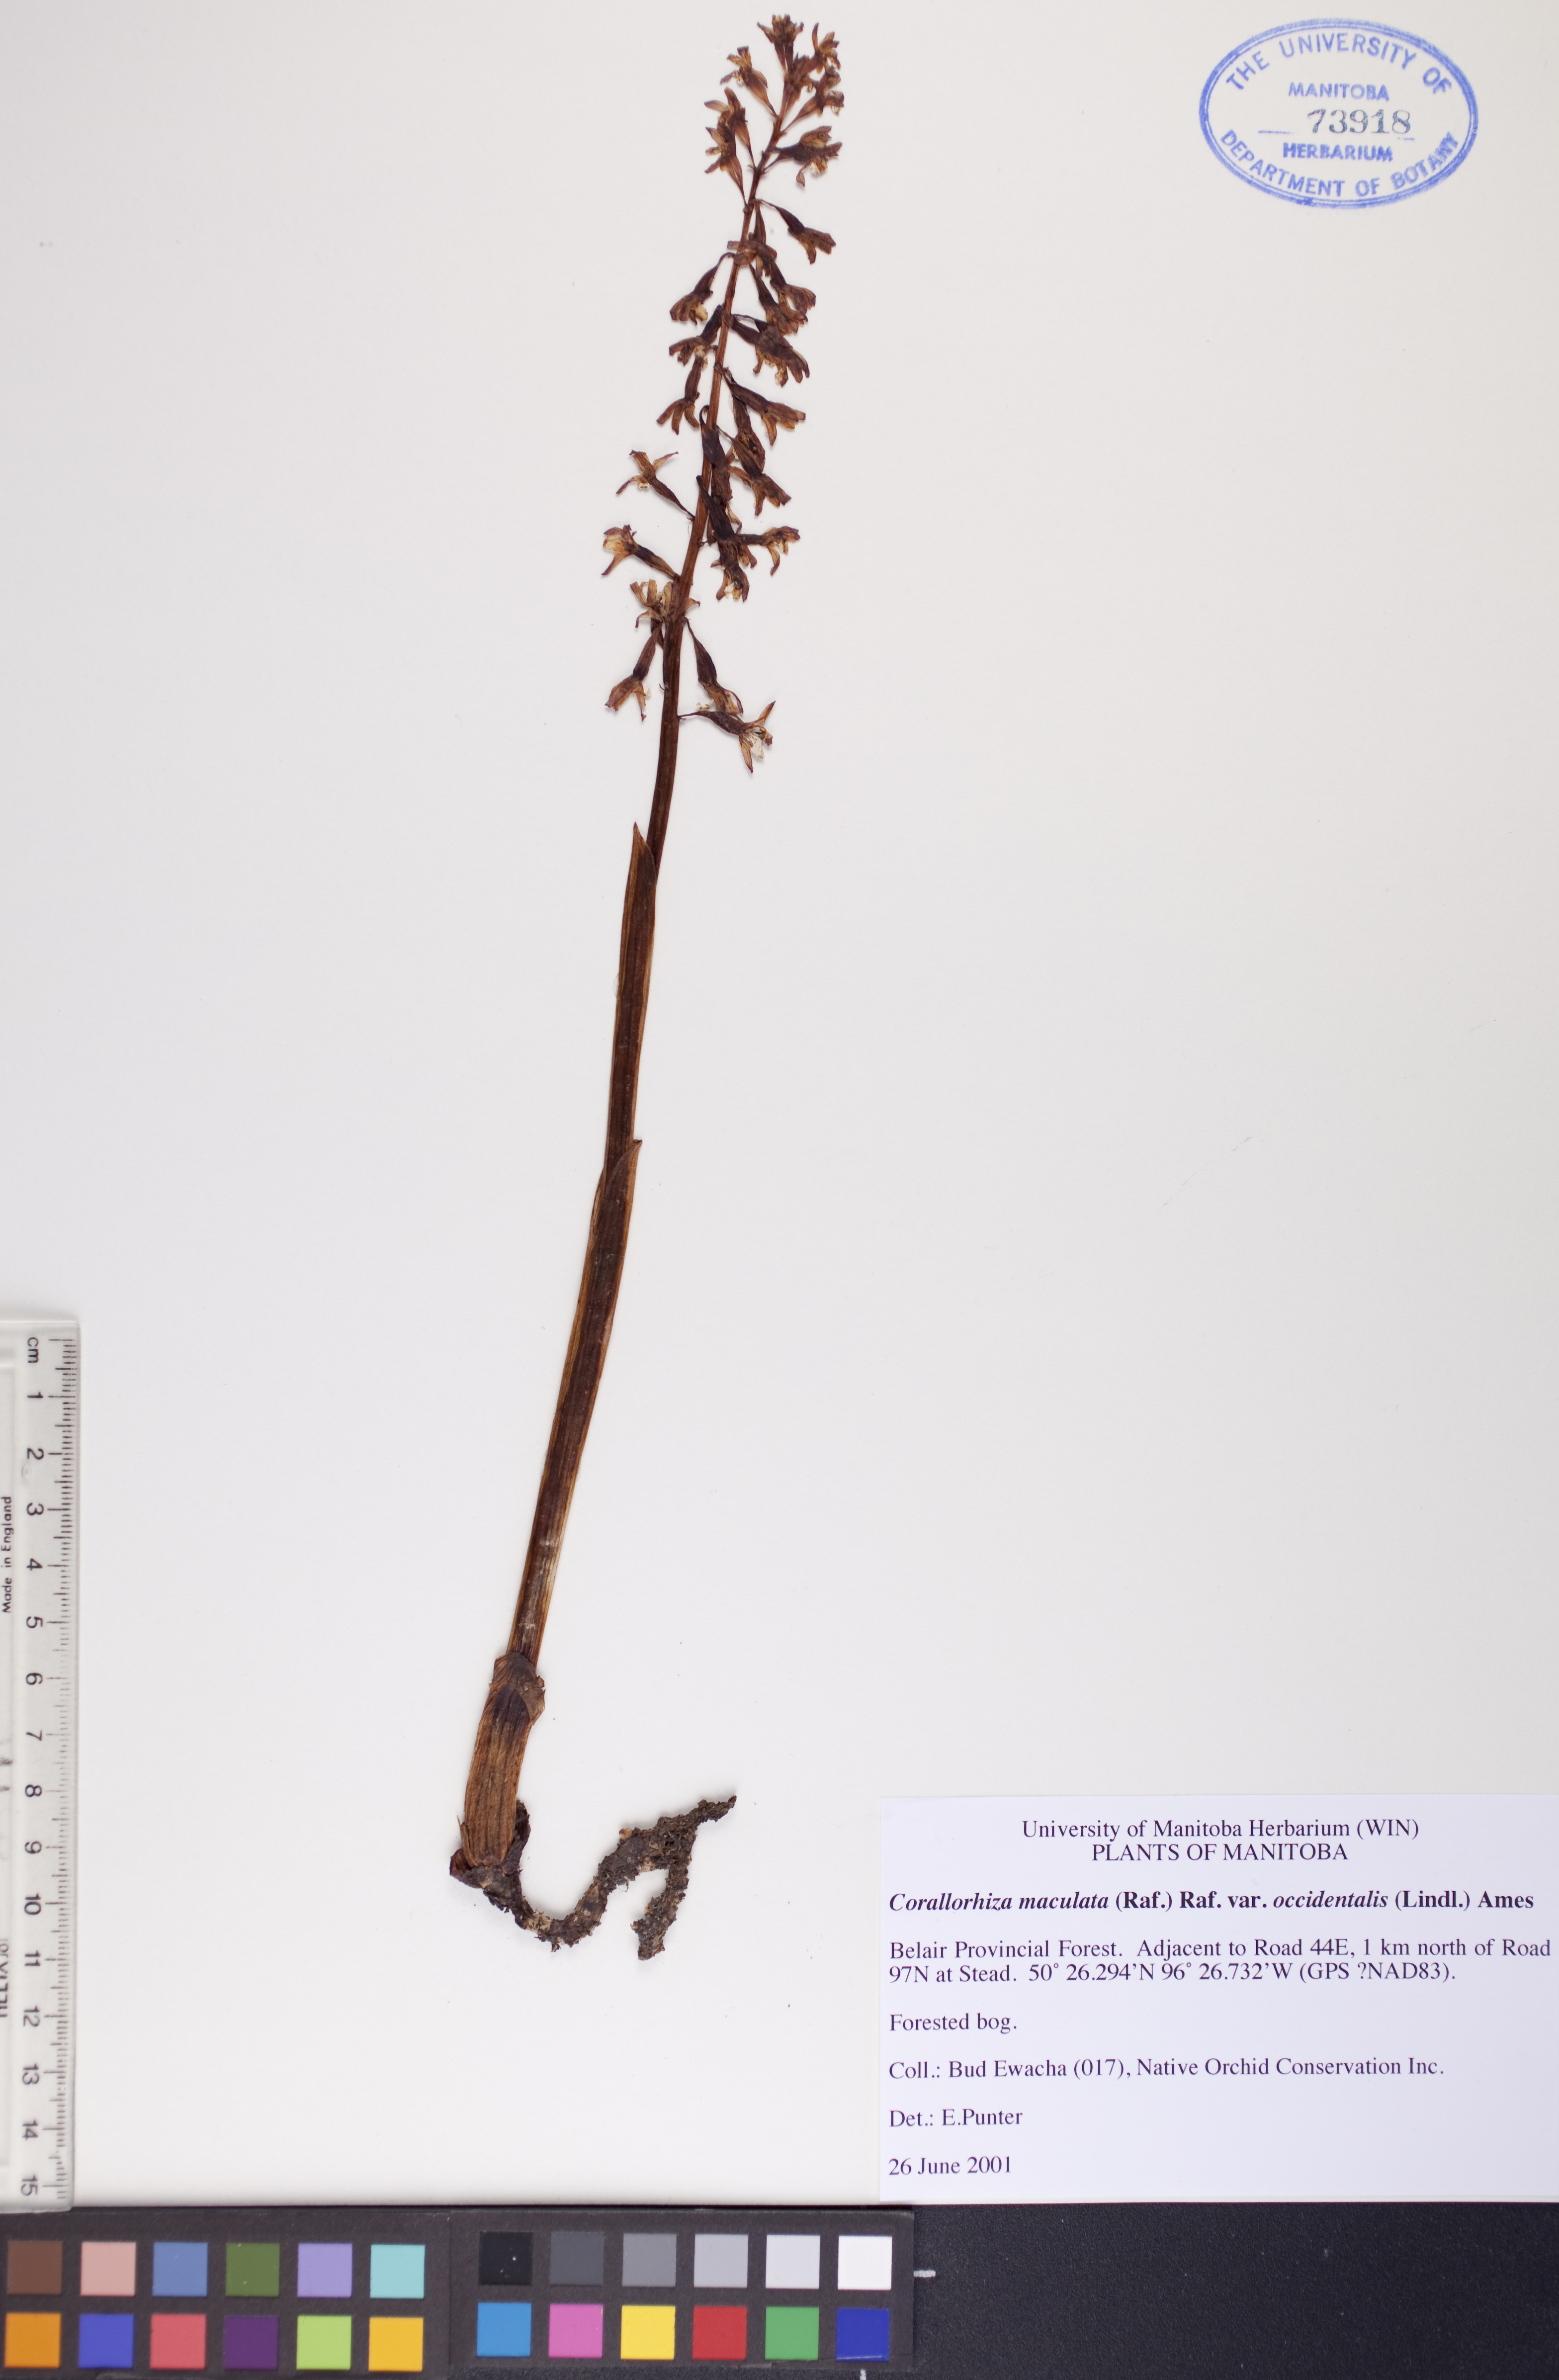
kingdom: Plantae
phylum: Tracheophyta
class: Liliopsida
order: Asparagales
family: Orchidaceae
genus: Corallorhiza
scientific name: Corallorhiza maculata
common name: Spotted coralroot
